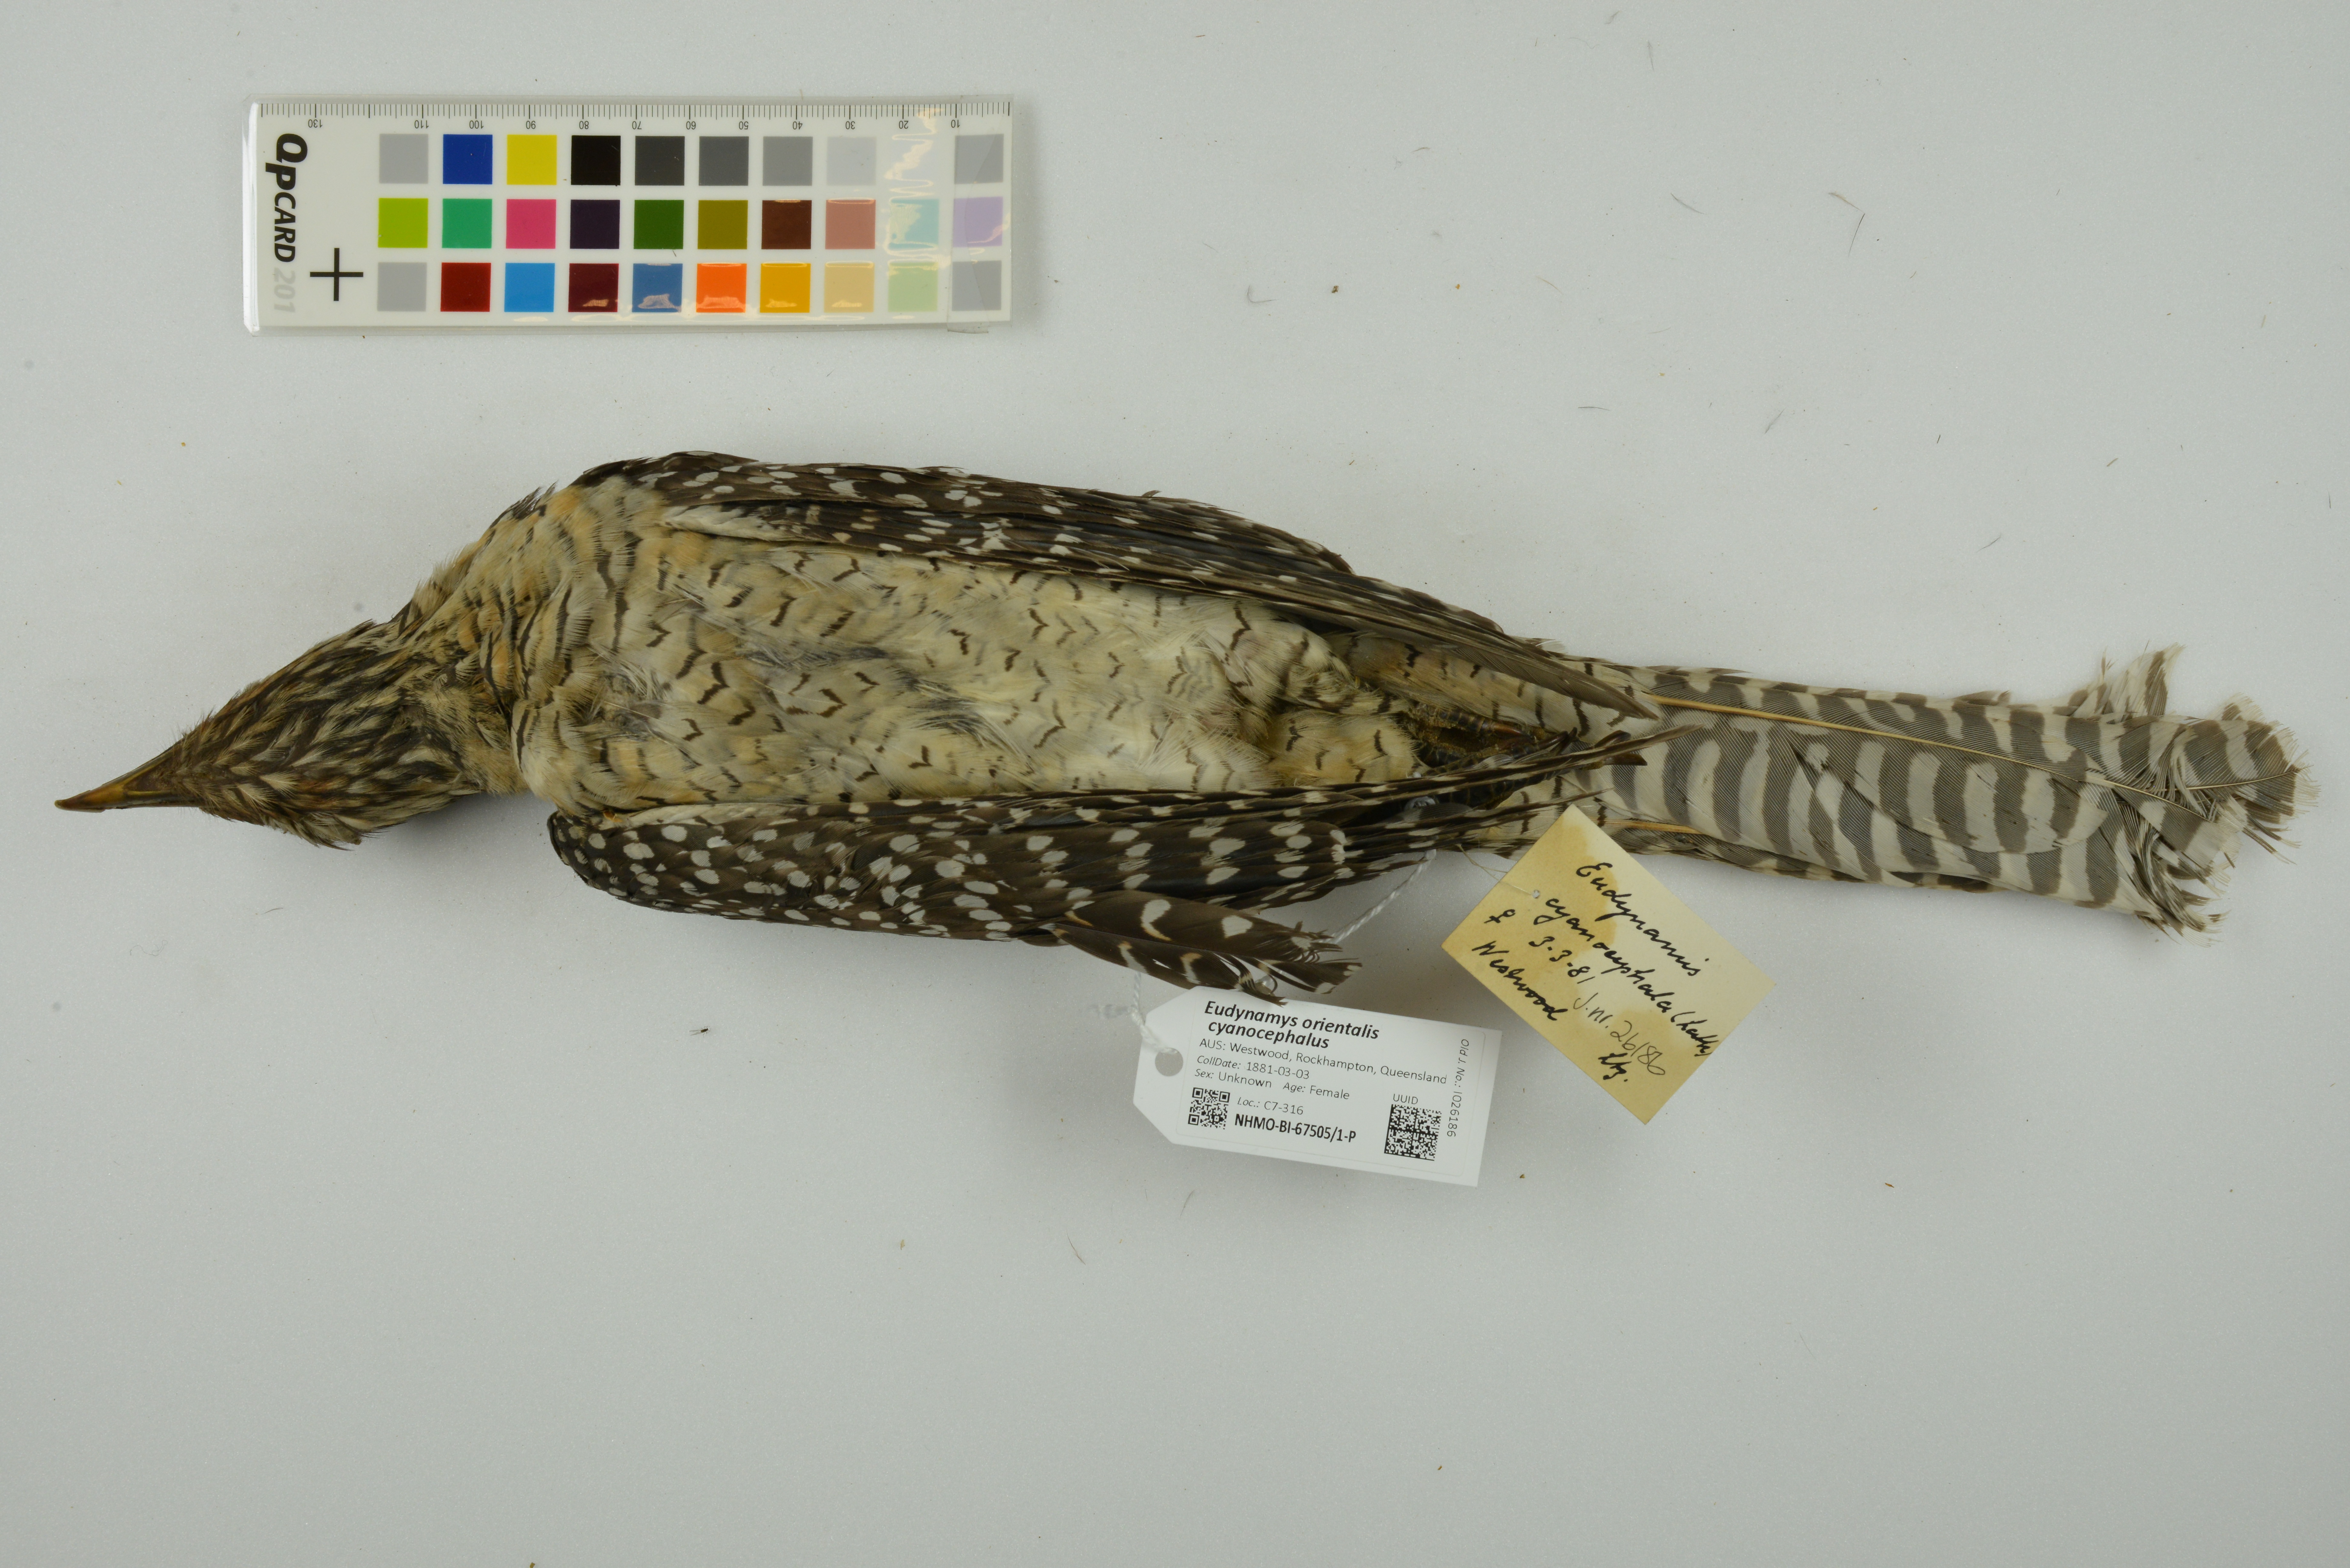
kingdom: Animalia
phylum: Chordata
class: Aves
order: Cuculiformes
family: Cuculidae
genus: Eudynamys
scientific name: Eudynamys scolopaceus
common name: Asian koel
